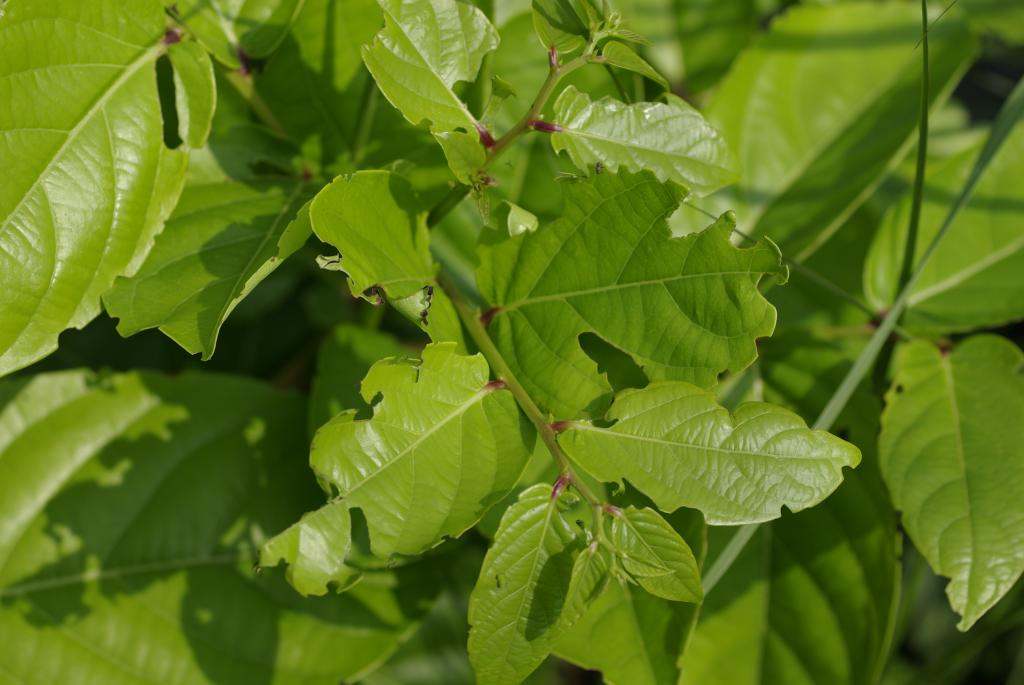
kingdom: Plantae
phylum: Tracheophyta
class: Magnoliopsida
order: Malpighiales
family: Phyllanthaceae
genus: Glochidion
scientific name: Glochidion zeylanicum
